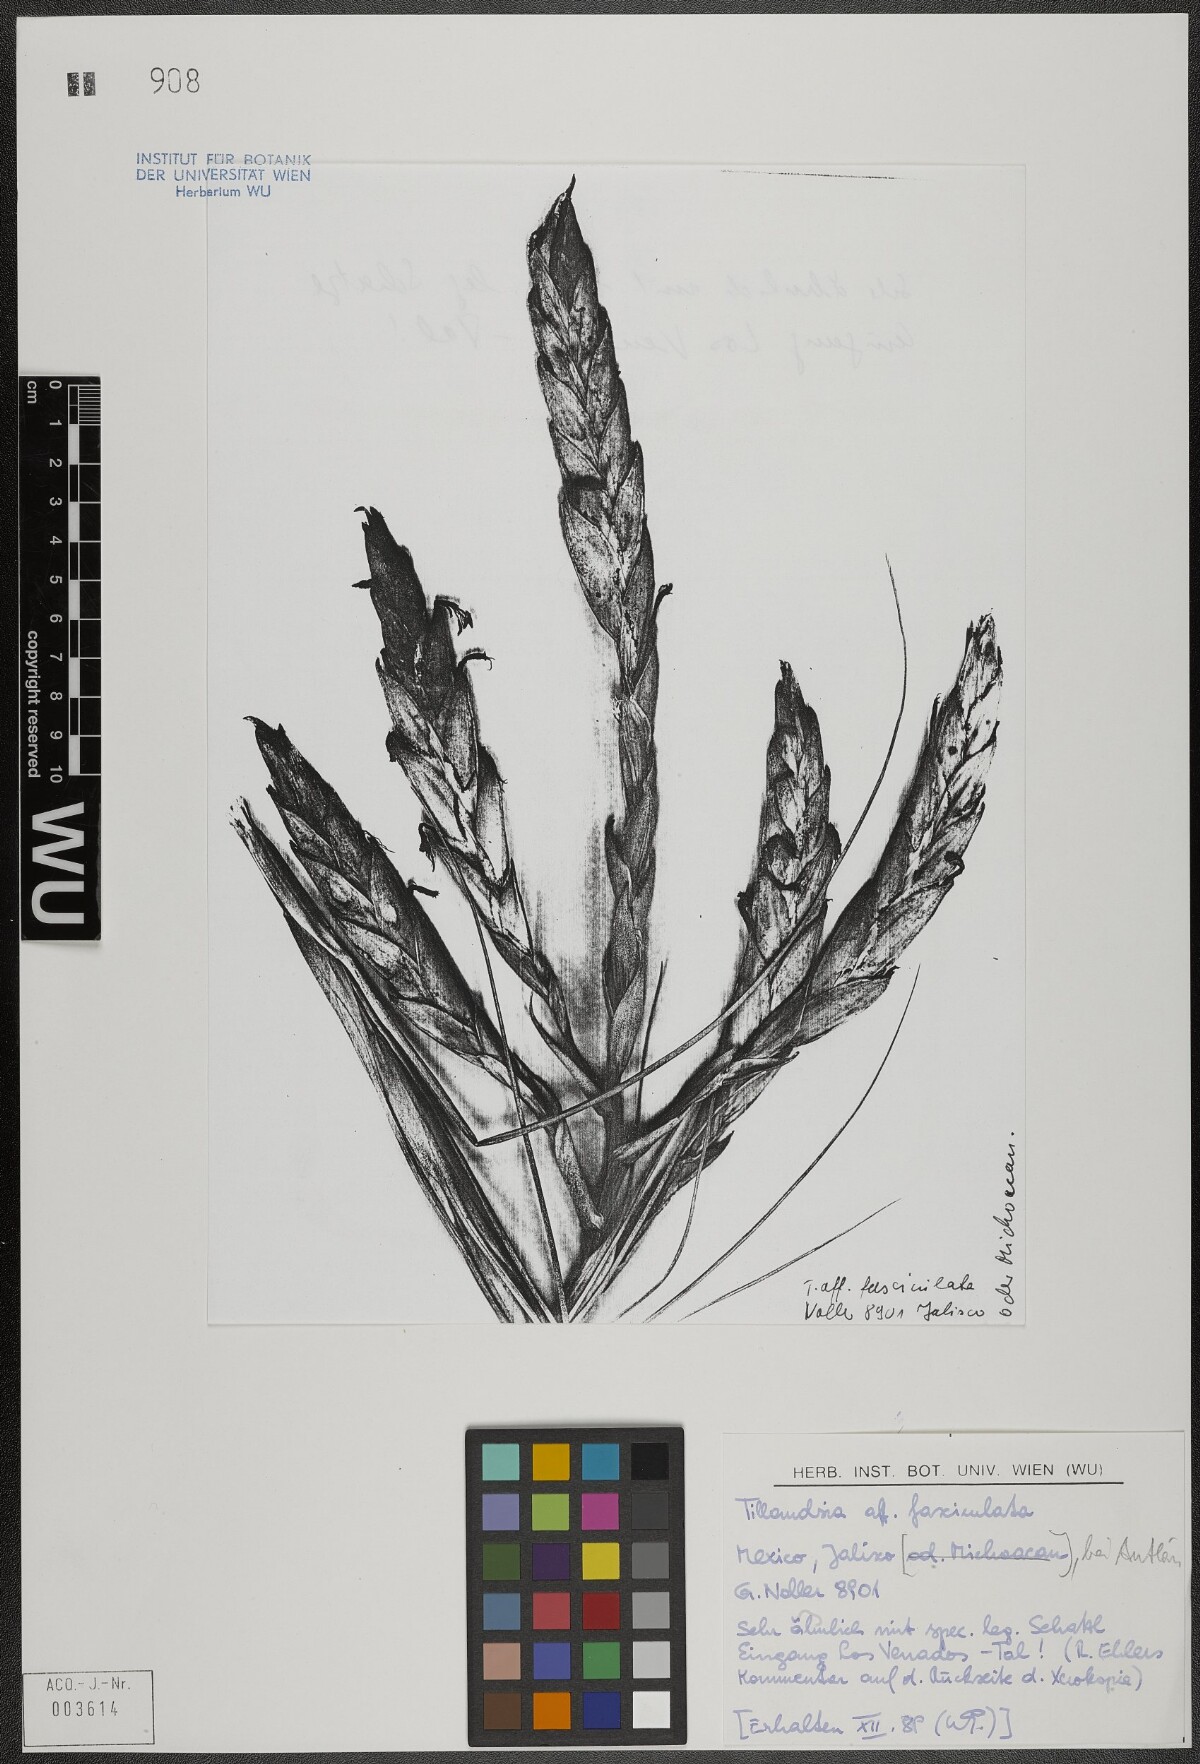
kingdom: Plantae
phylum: Tracheophyta
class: Liliopsida
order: Poales
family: Bromeliaceae
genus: Tillandsia
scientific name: Tillandsia fasciculata
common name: Giant airplant
